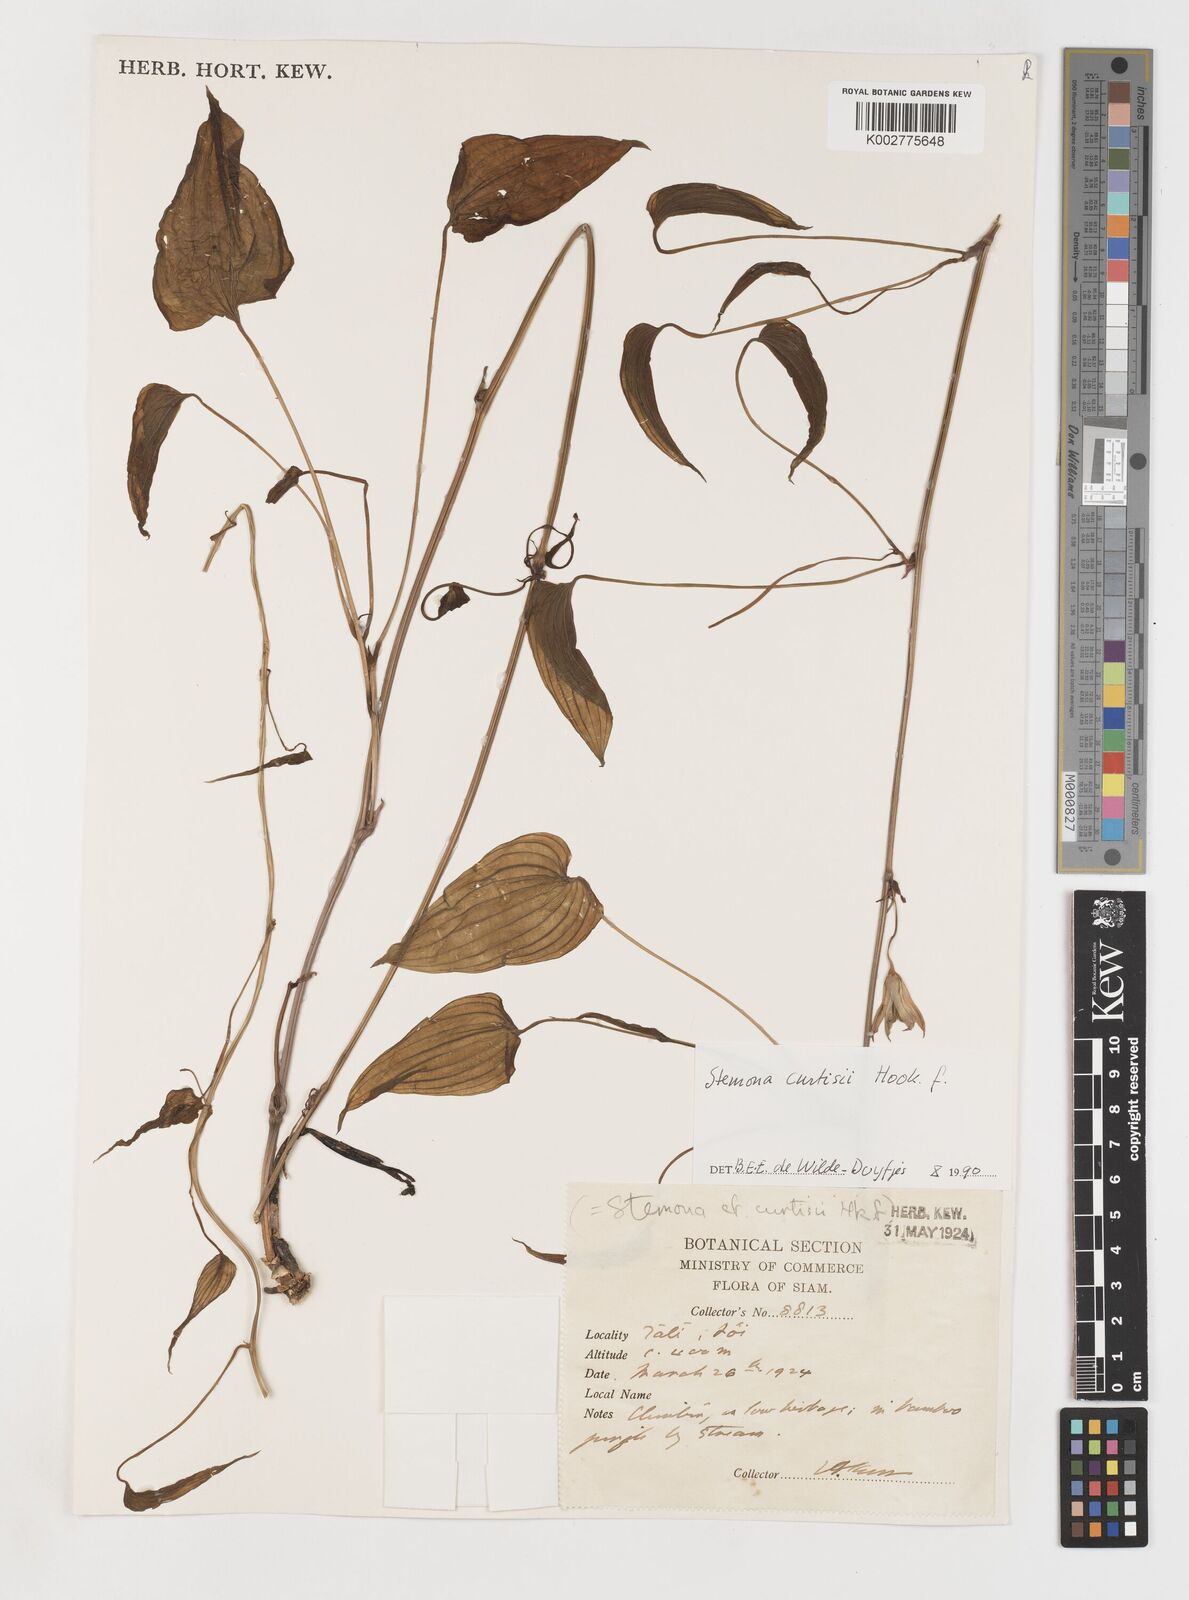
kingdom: Plantae
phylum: Tracheophyta
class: Liliopsida
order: Pandanales
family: Stemonaceae
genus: Stemona
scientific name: Stemona curtisii
